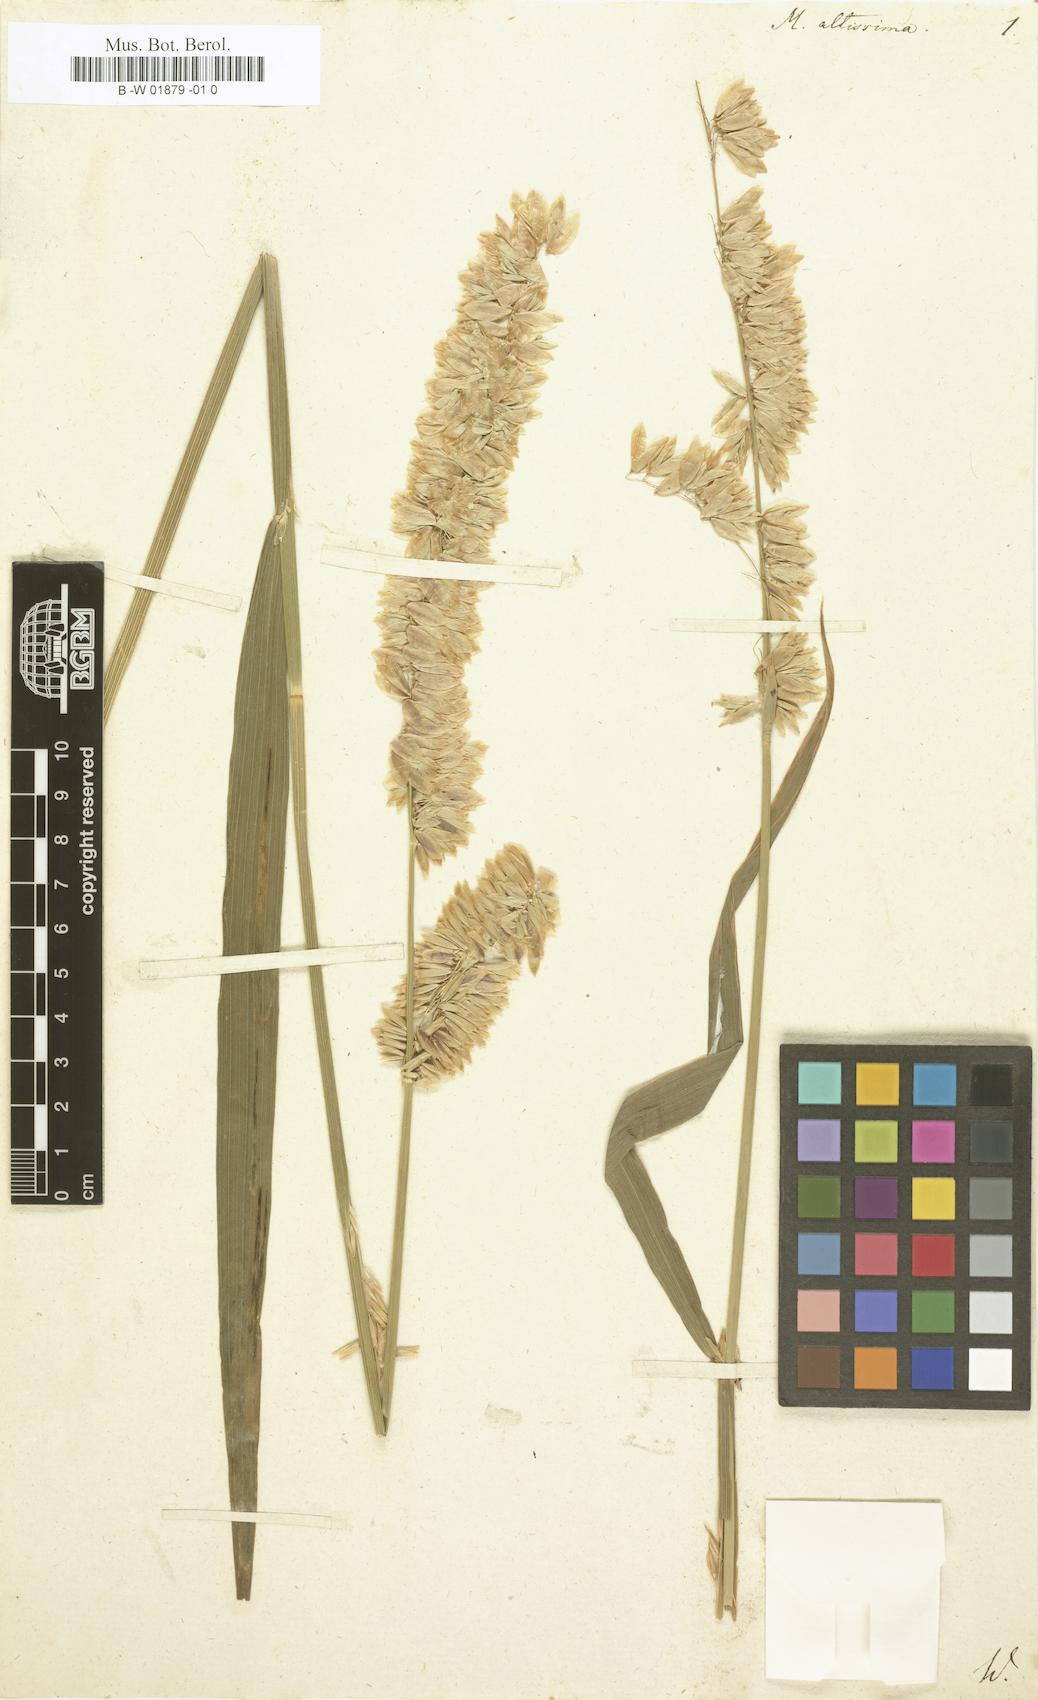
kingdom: Plantae
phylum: Tracheophyta
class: Liliopsida
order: Poales
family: Poaceae
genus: Melica
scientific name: Melica altissima
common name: Siberian melicgrass
